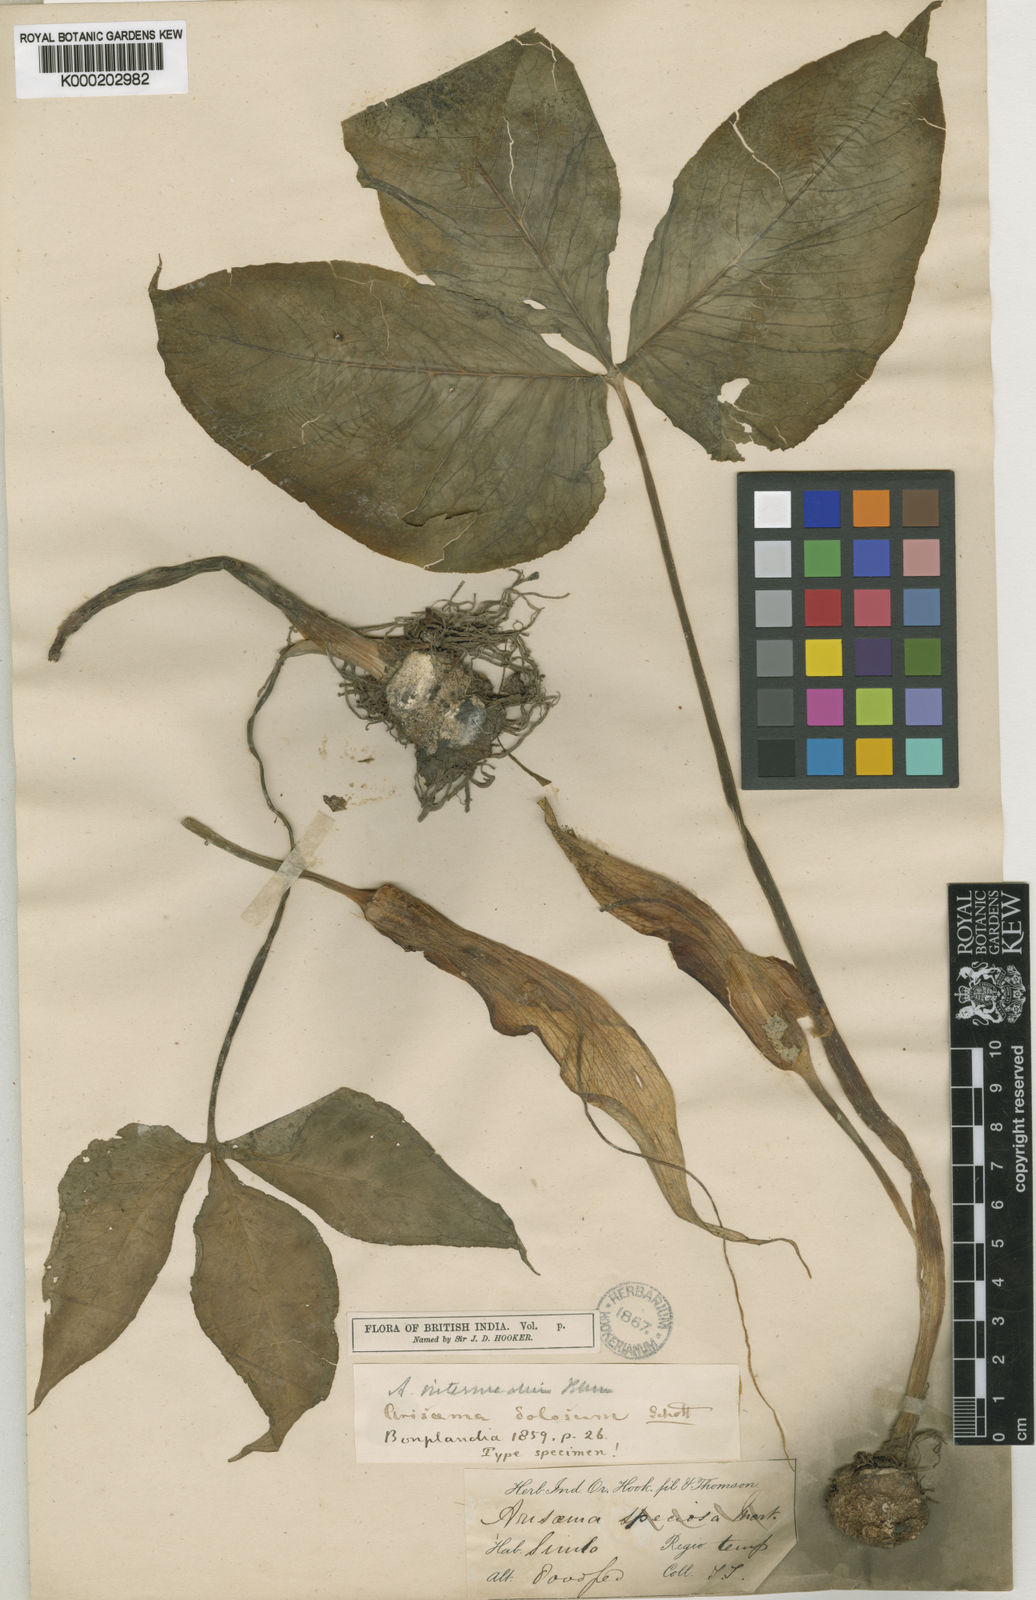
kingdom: Plantae
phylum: Tracheophyta
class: Liliopsida
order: Alismatales
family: Araceae
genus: Arisaema
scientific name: Arisaema intermedium
